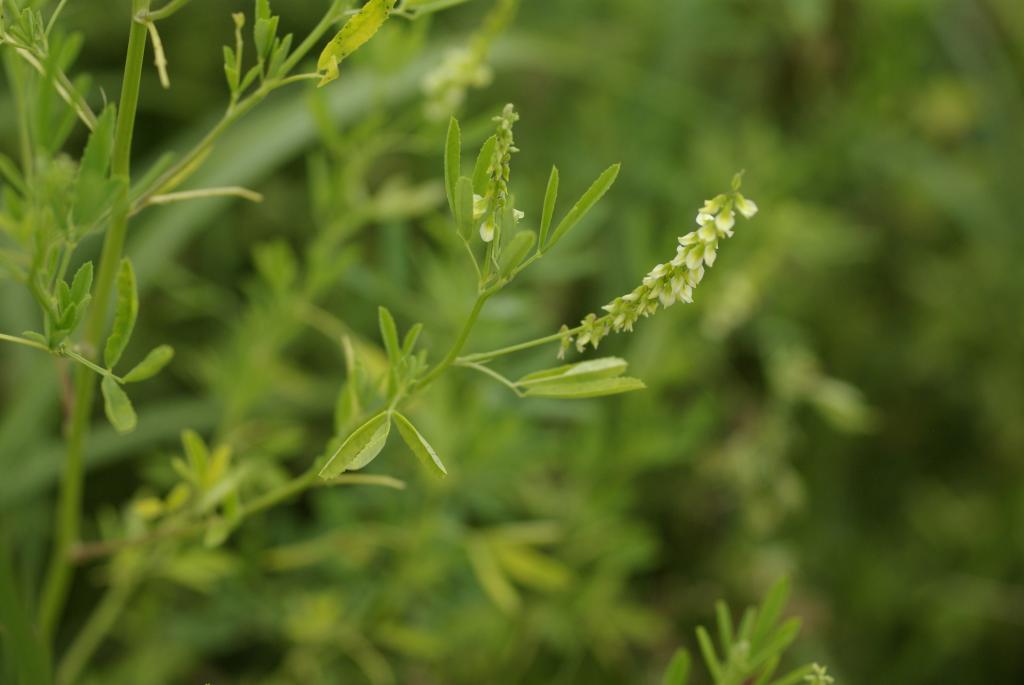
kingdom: Plantae
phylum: Tracheophyta
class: Magnoliopsida
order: Fabales
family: Fabaceae
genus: Melilotus
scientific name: Melilotus indicus
